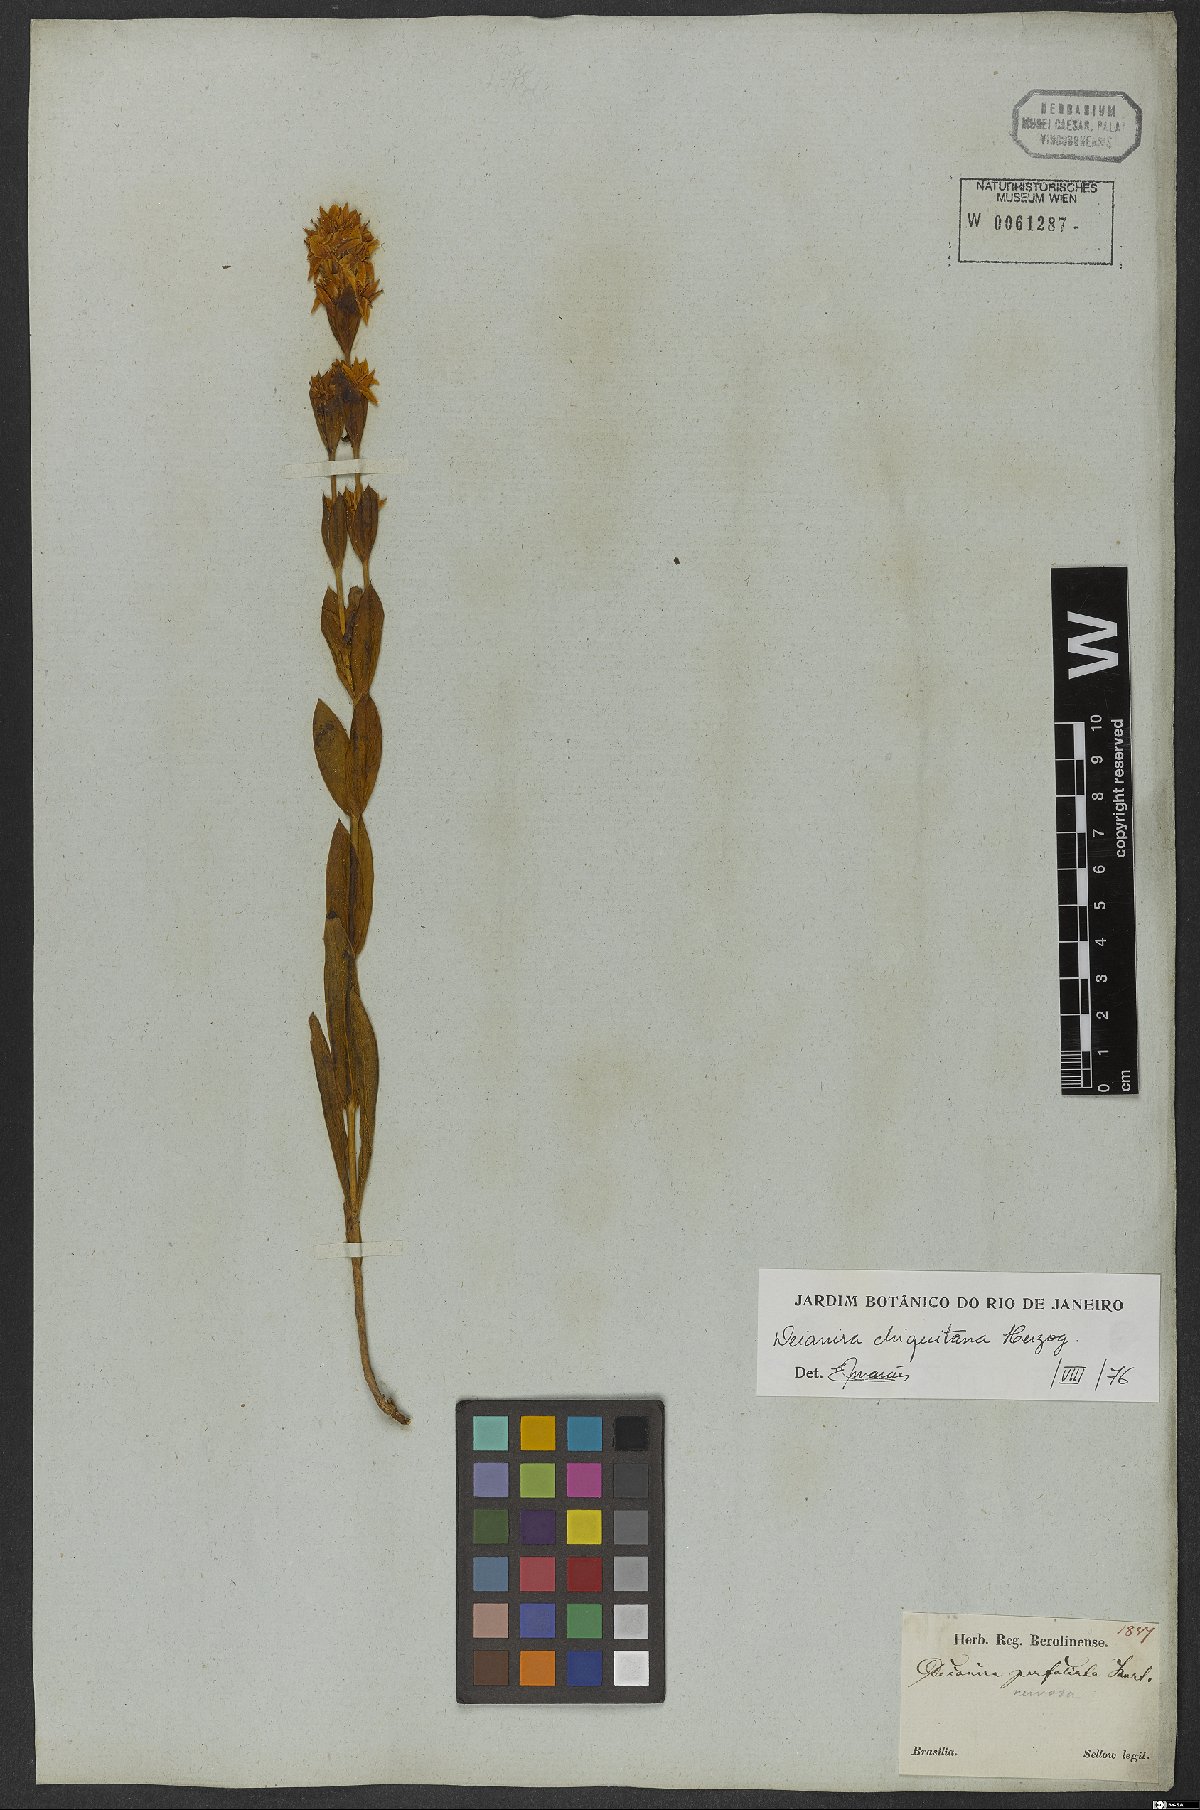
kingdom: Plantae
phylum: Tracheophyta
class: Magnoliopsida
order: Gentianales
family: Gentianaceae
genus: Deianira
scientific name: Deianira chiquitana
